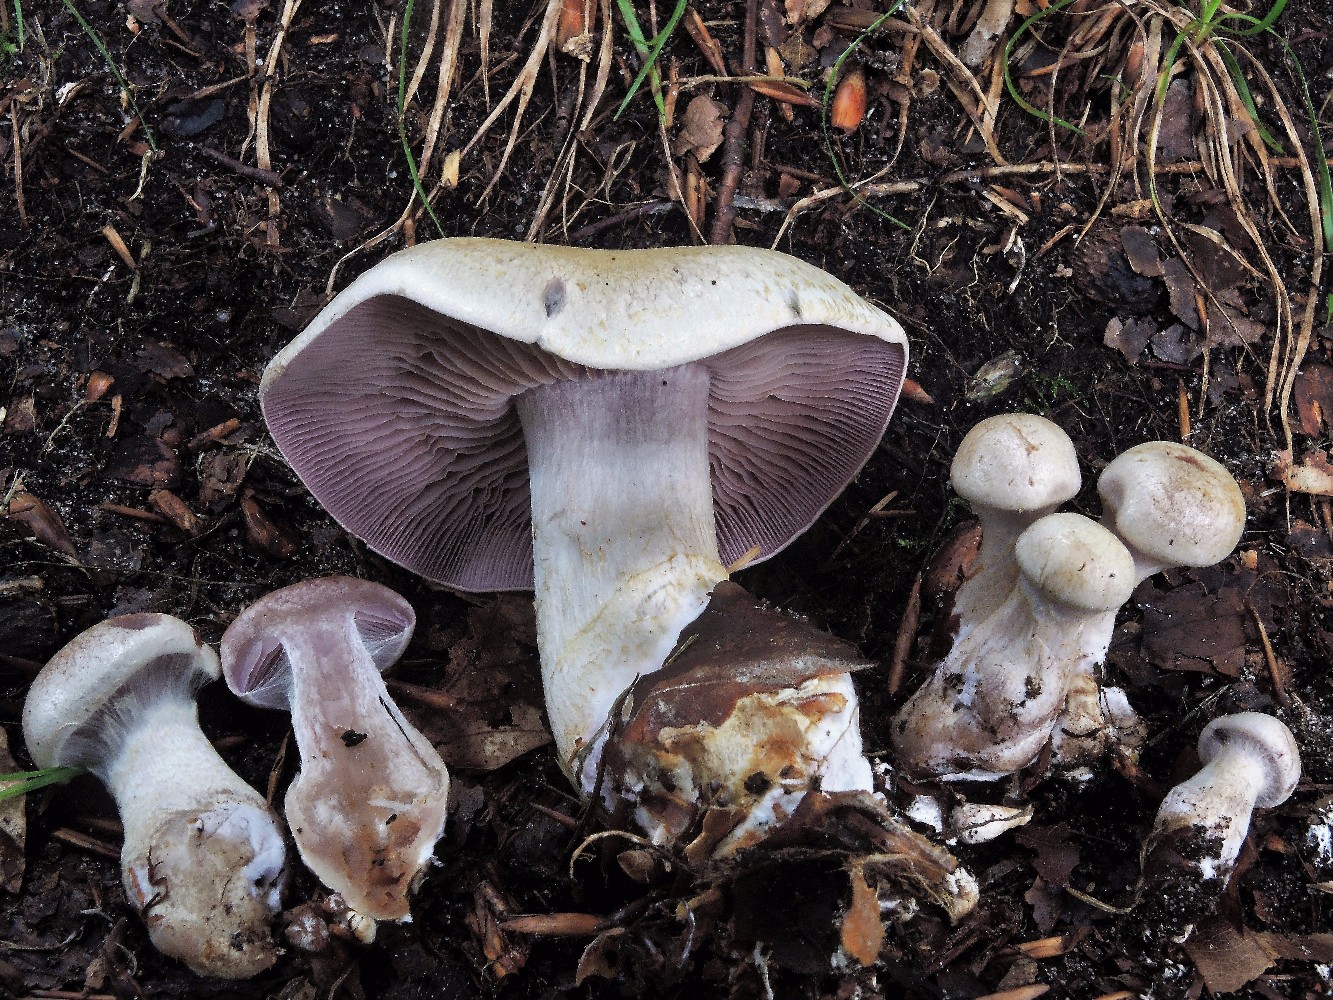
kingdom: Fungi
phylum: Basidiomycota
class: Agaricomycetes
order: Agaricales
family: Cortinariaceae
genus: Cortinarius
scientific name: Cortinarius
